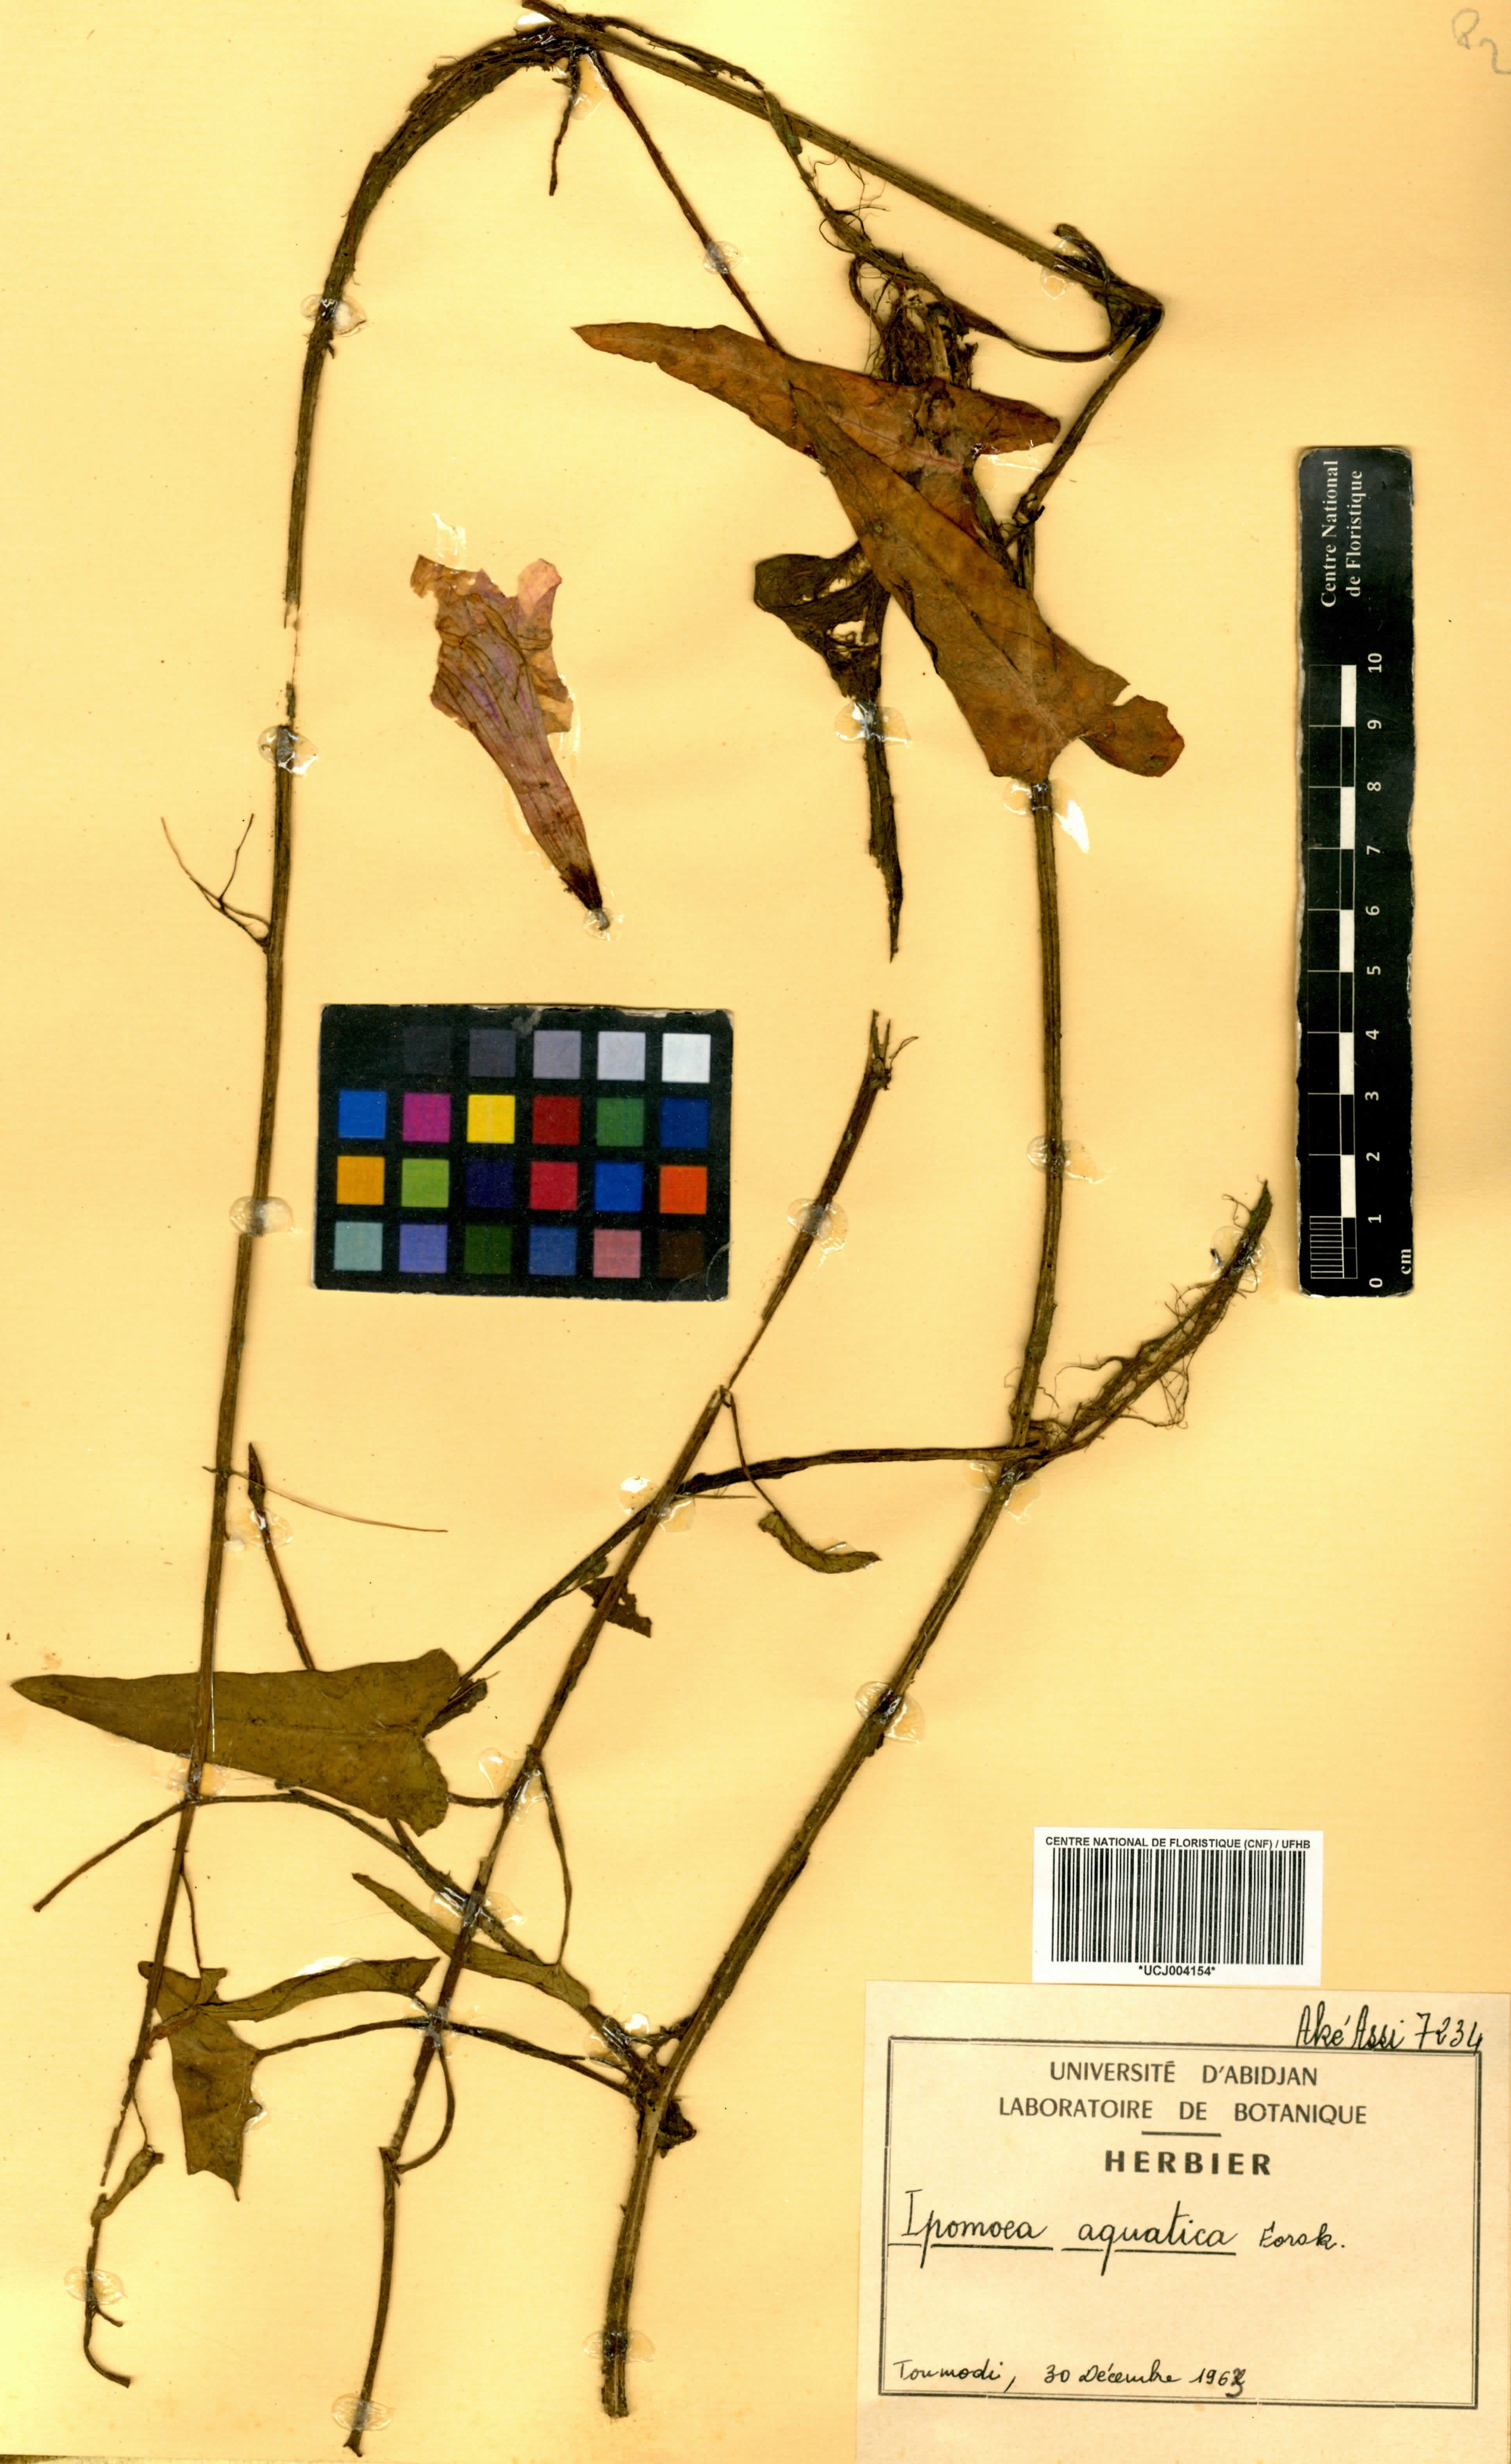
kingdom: Plantae
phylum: Tracheophyta
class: Magnoliopsida
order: Solanales
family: Convolvulaceae
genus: Ipomoea
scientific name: Ipomoea aquatica
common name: Swamp morning-glory
